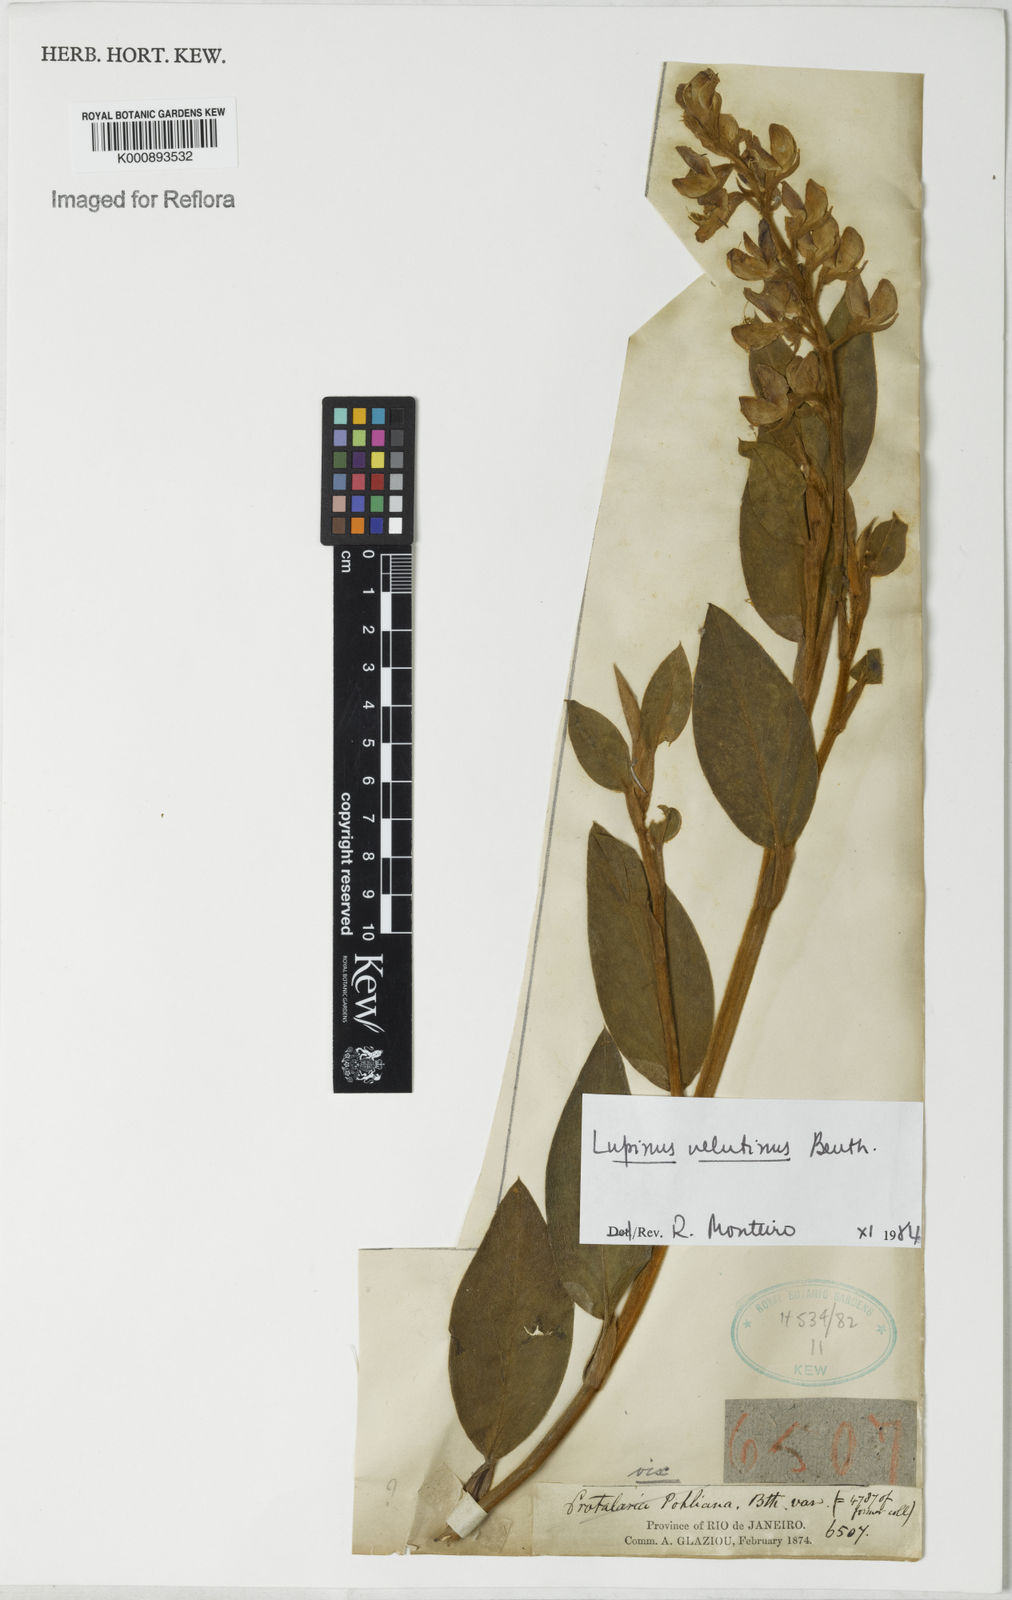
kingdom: Plantae
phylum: Tracheophyta
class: Magnoliopsida
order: Fabales
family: Fabaceae
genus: Lupinus
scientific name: Lupinus velutinus
